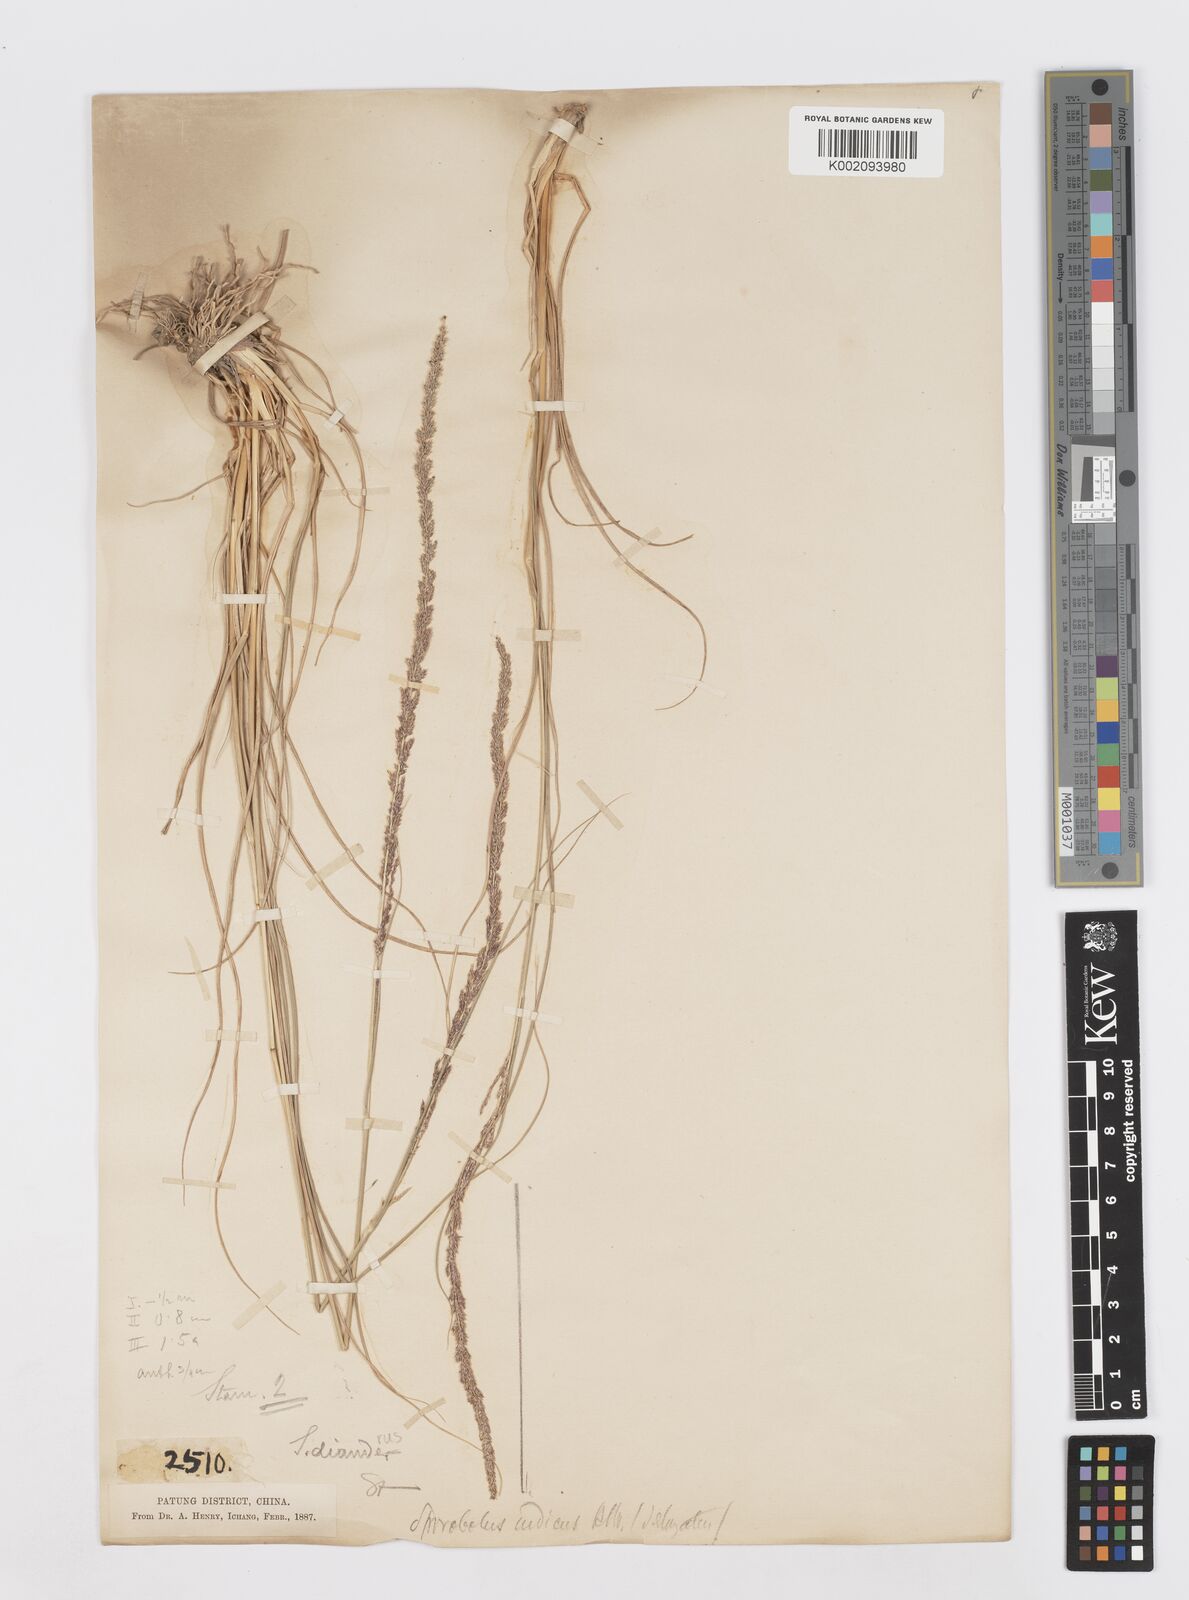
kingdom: Plantae
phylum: Tracheophyta
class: Liliopsida
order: Poales
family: Poaceae
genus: Sporobolus
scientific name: Sporobolus diandrus
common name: Tussock dropseed
